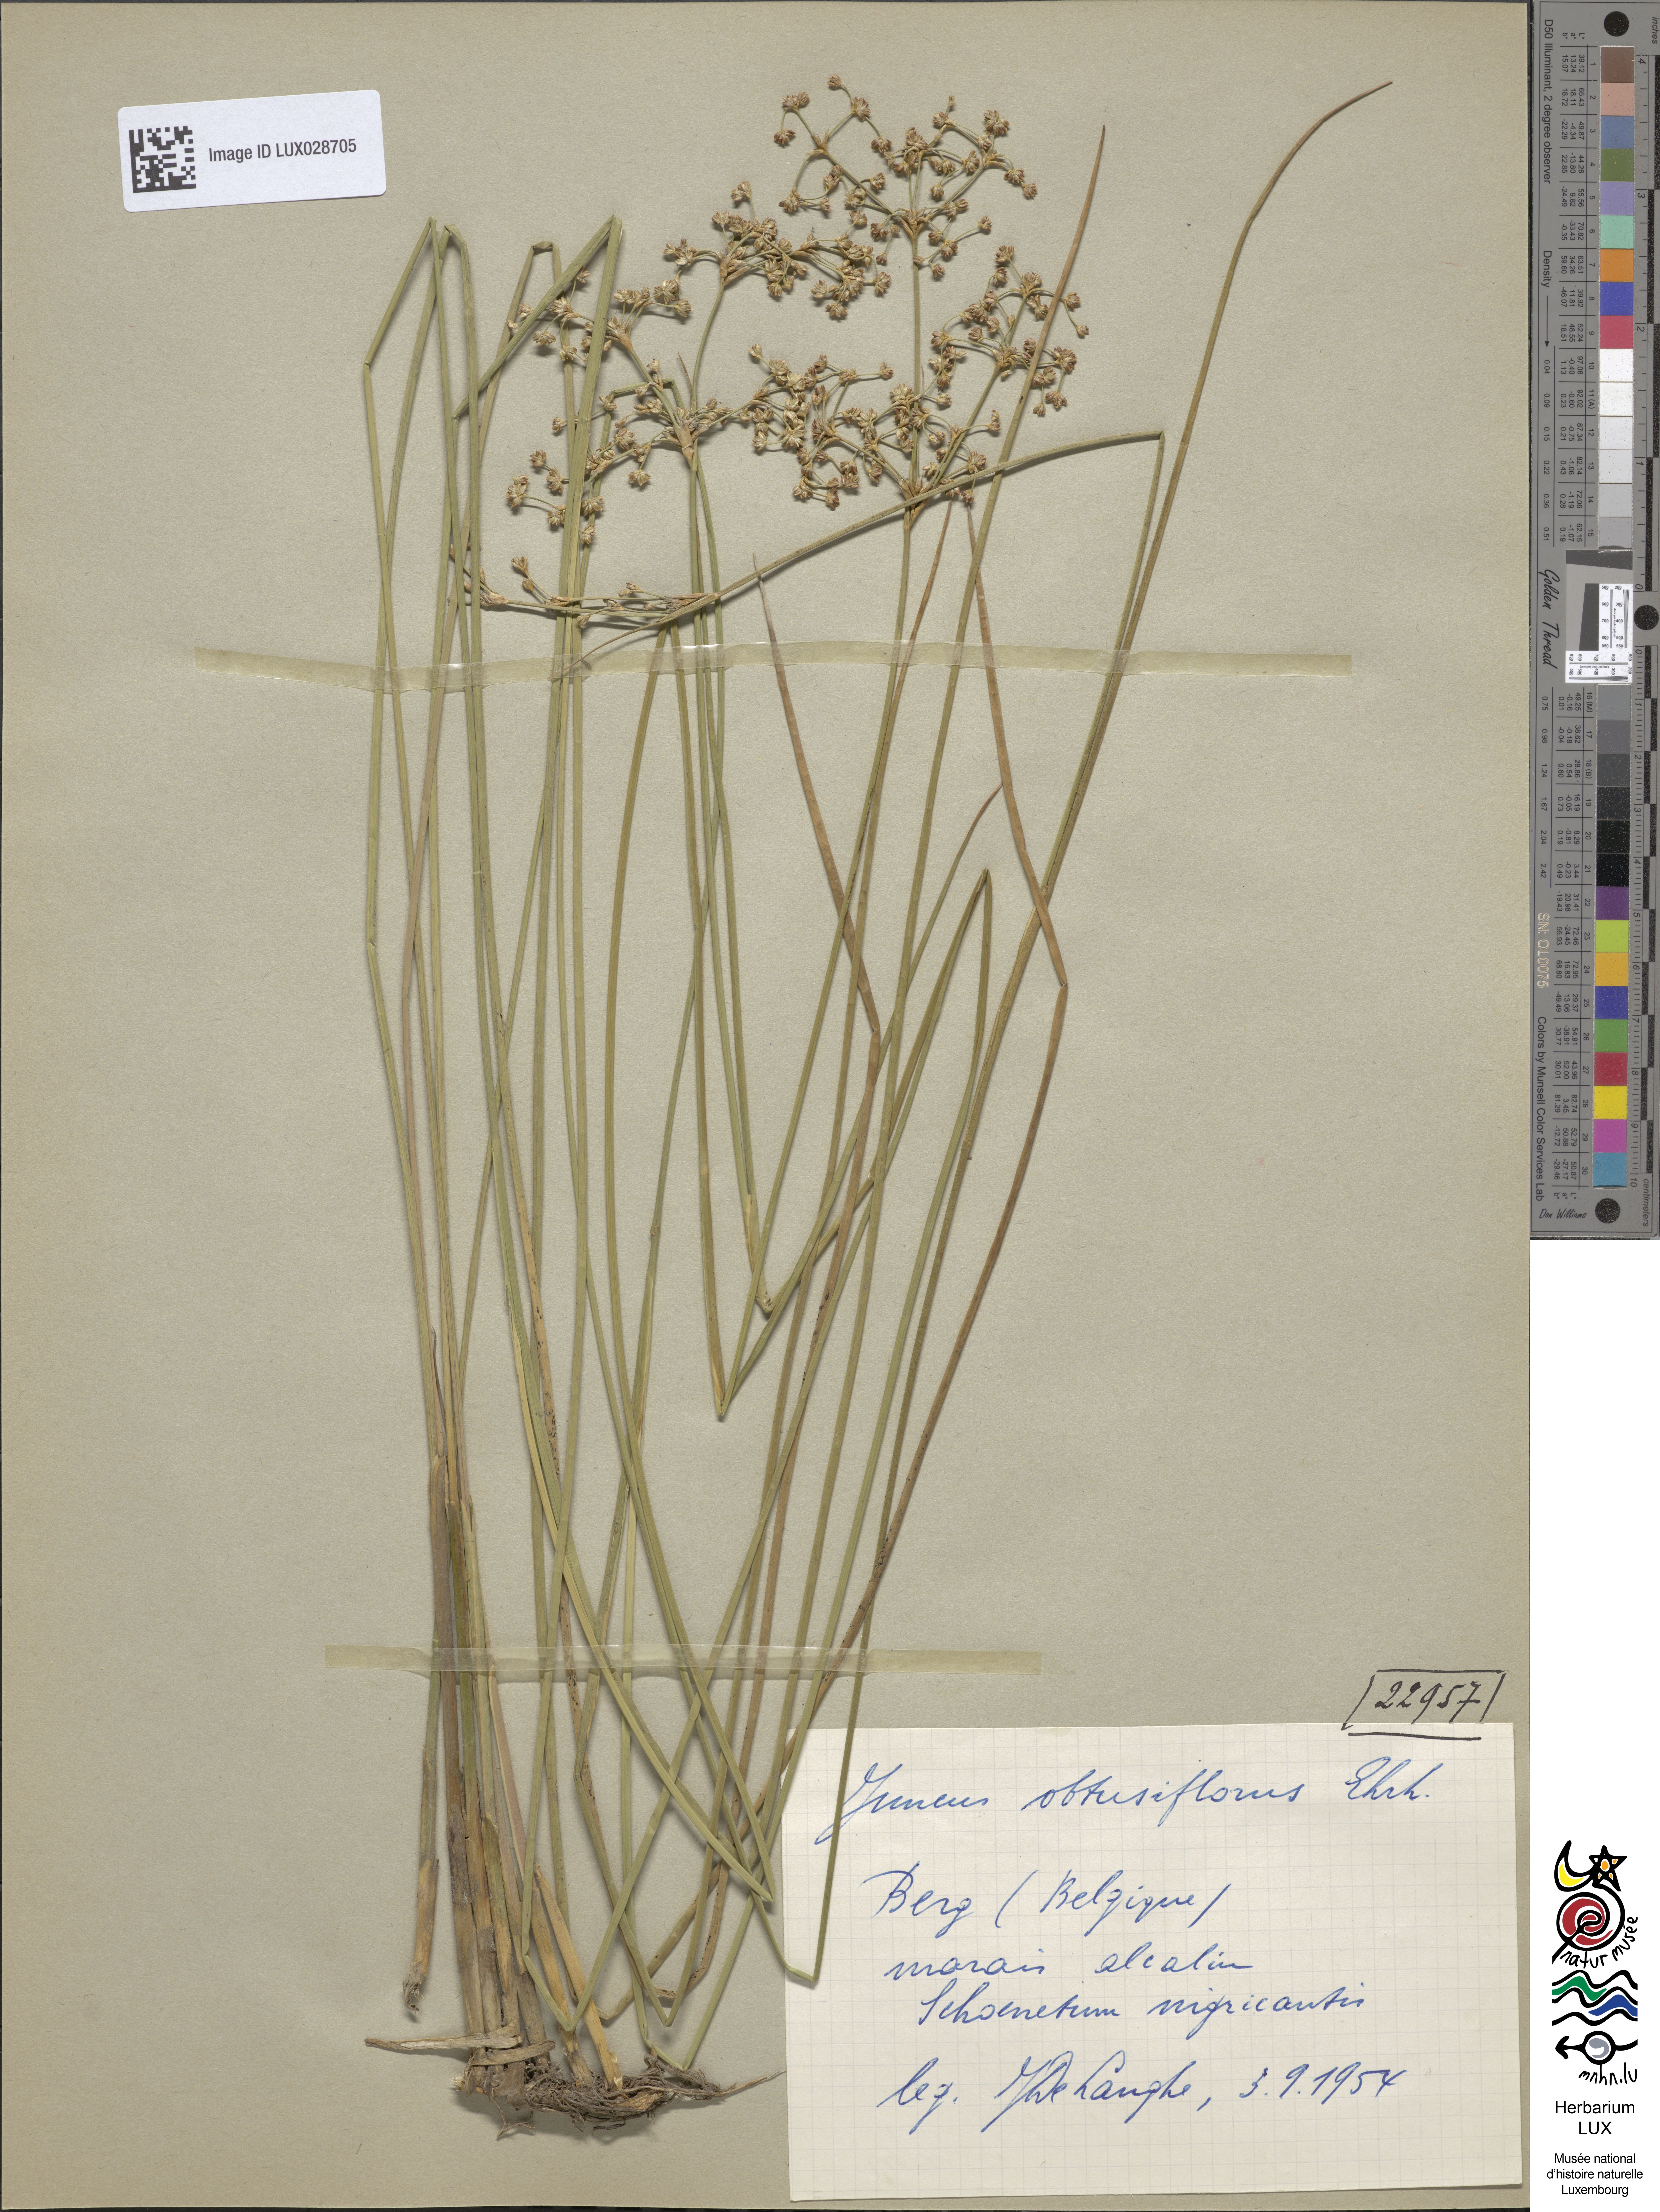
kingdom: Plantae
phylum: Tracheophyta
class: Liliopsida
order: Poales
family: Juncaceae
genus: Juncus
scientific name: Juncus subnodulosus
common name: Blunt-flowered rush
